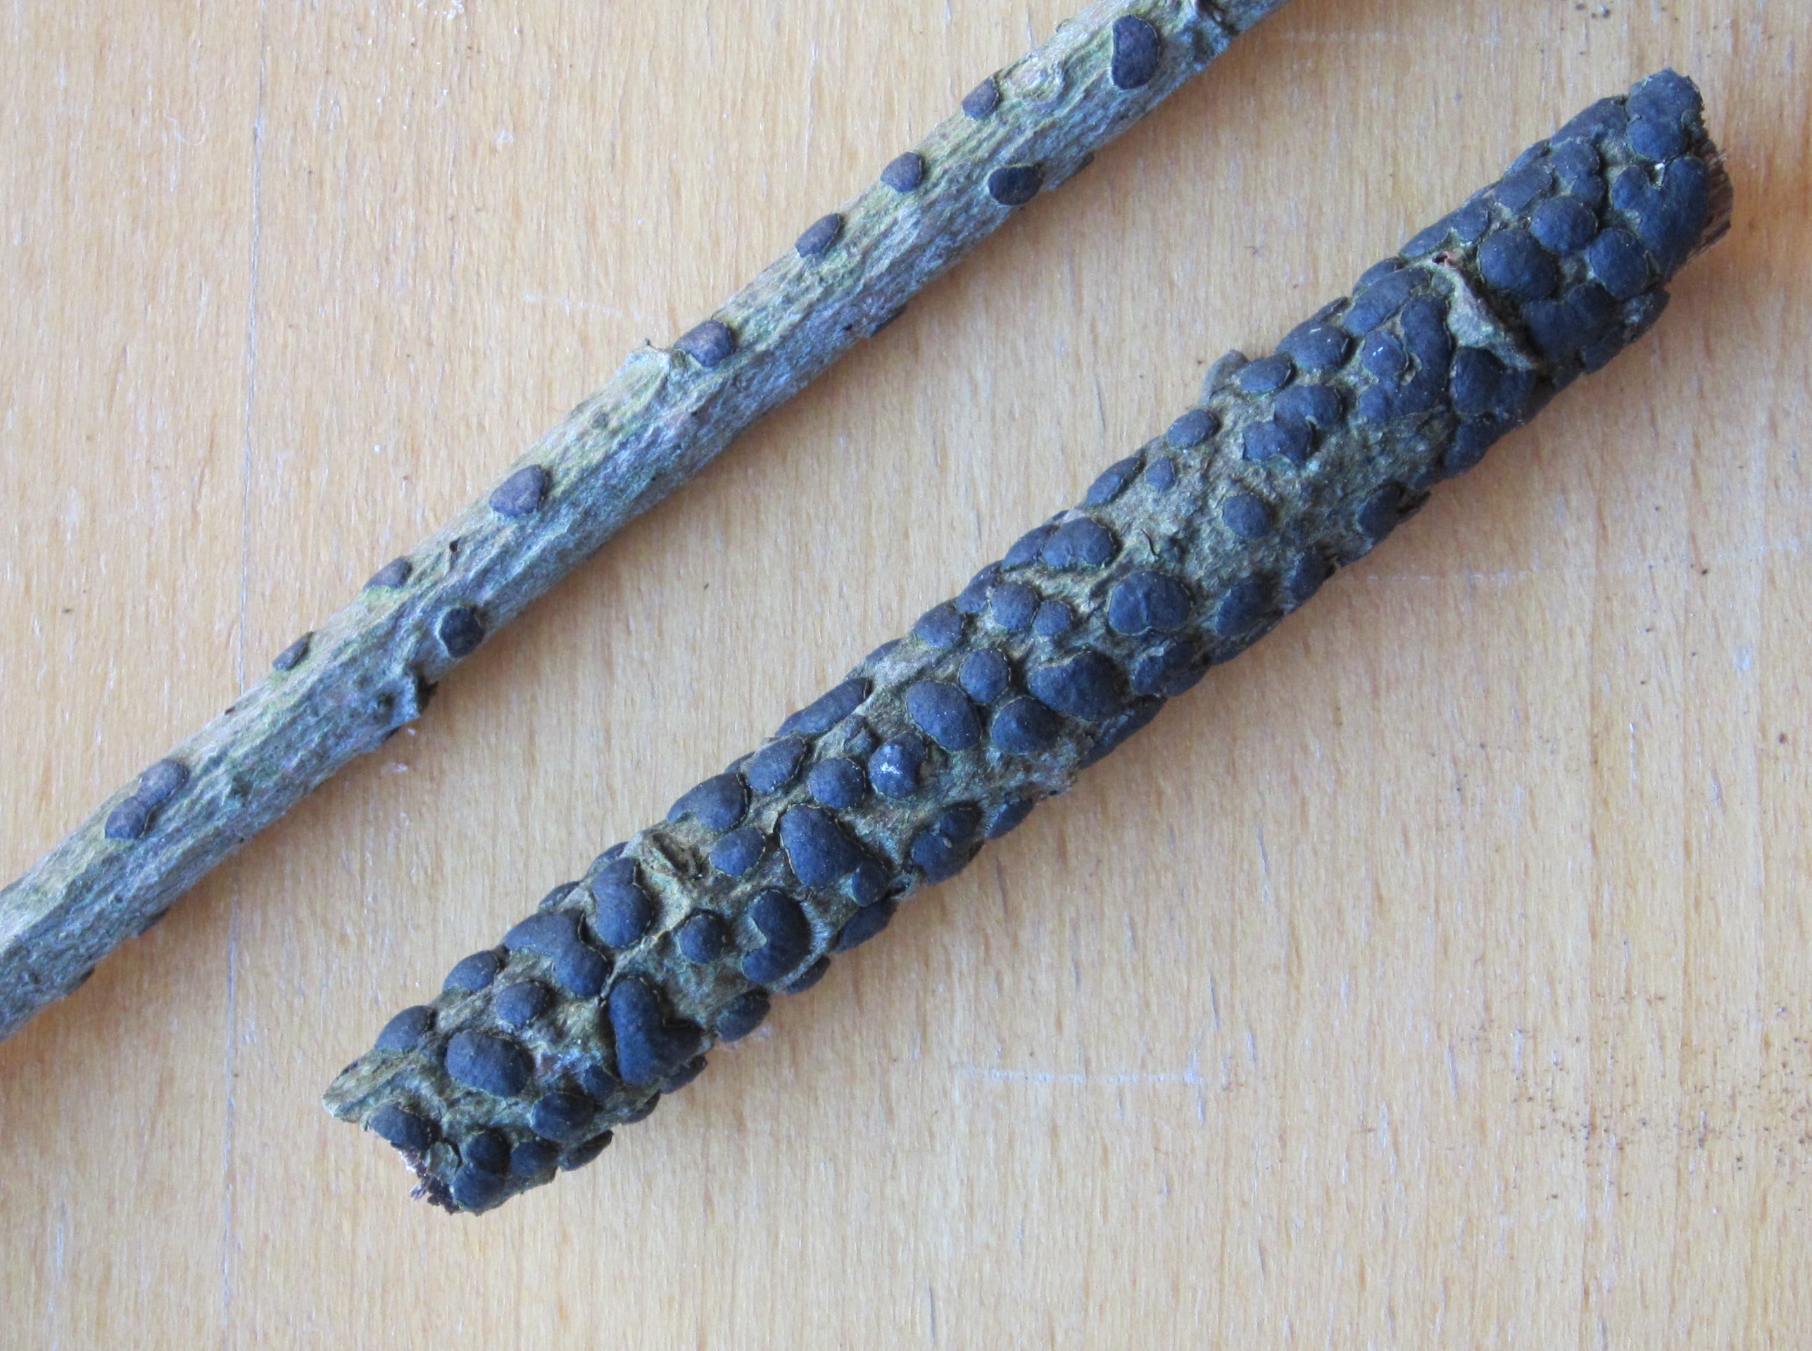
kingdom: Fungi
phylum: Ascomycota
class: Sordariomycetes
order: Xylariales
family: Diatrypaceae
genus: Diatrype
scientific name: Diatrype bullata
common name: pile-kulskorpe
